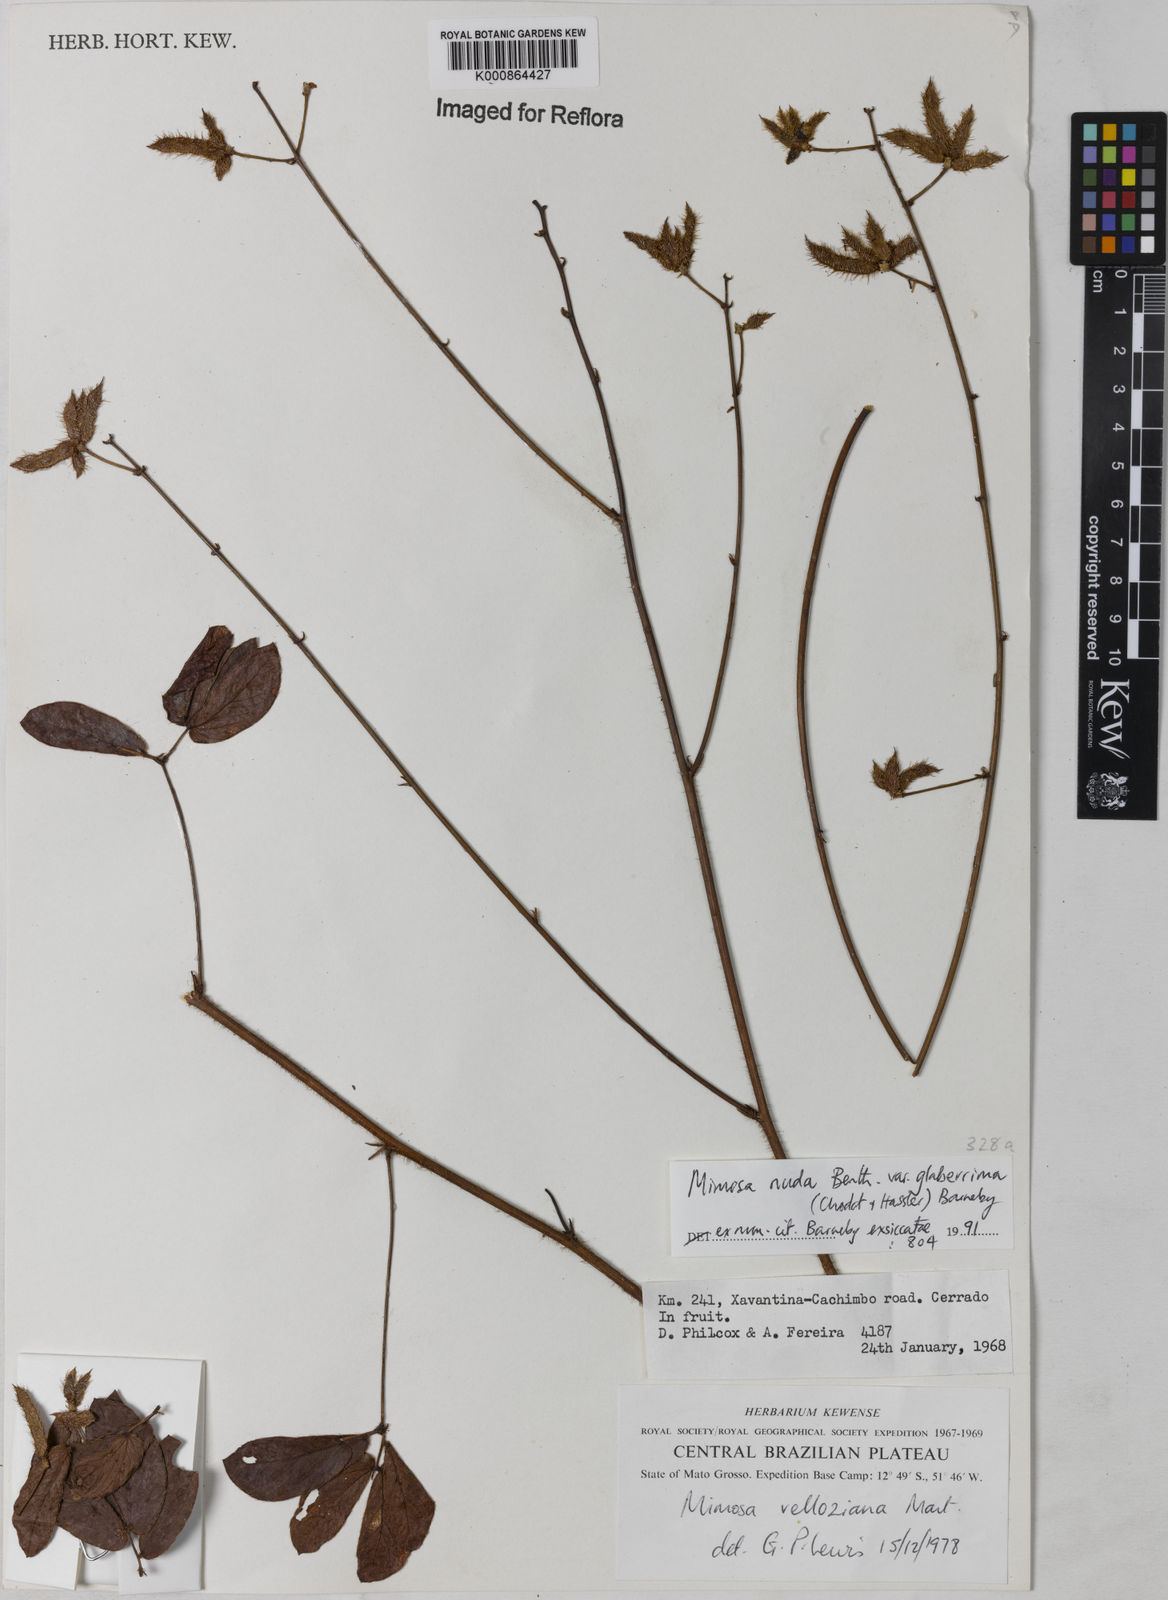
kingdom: Plantae
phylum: Tracheophyta
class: Magnoliopsida
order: Fabales
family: Fabaceae
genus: Mimosa
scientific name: Mimosa debilis
